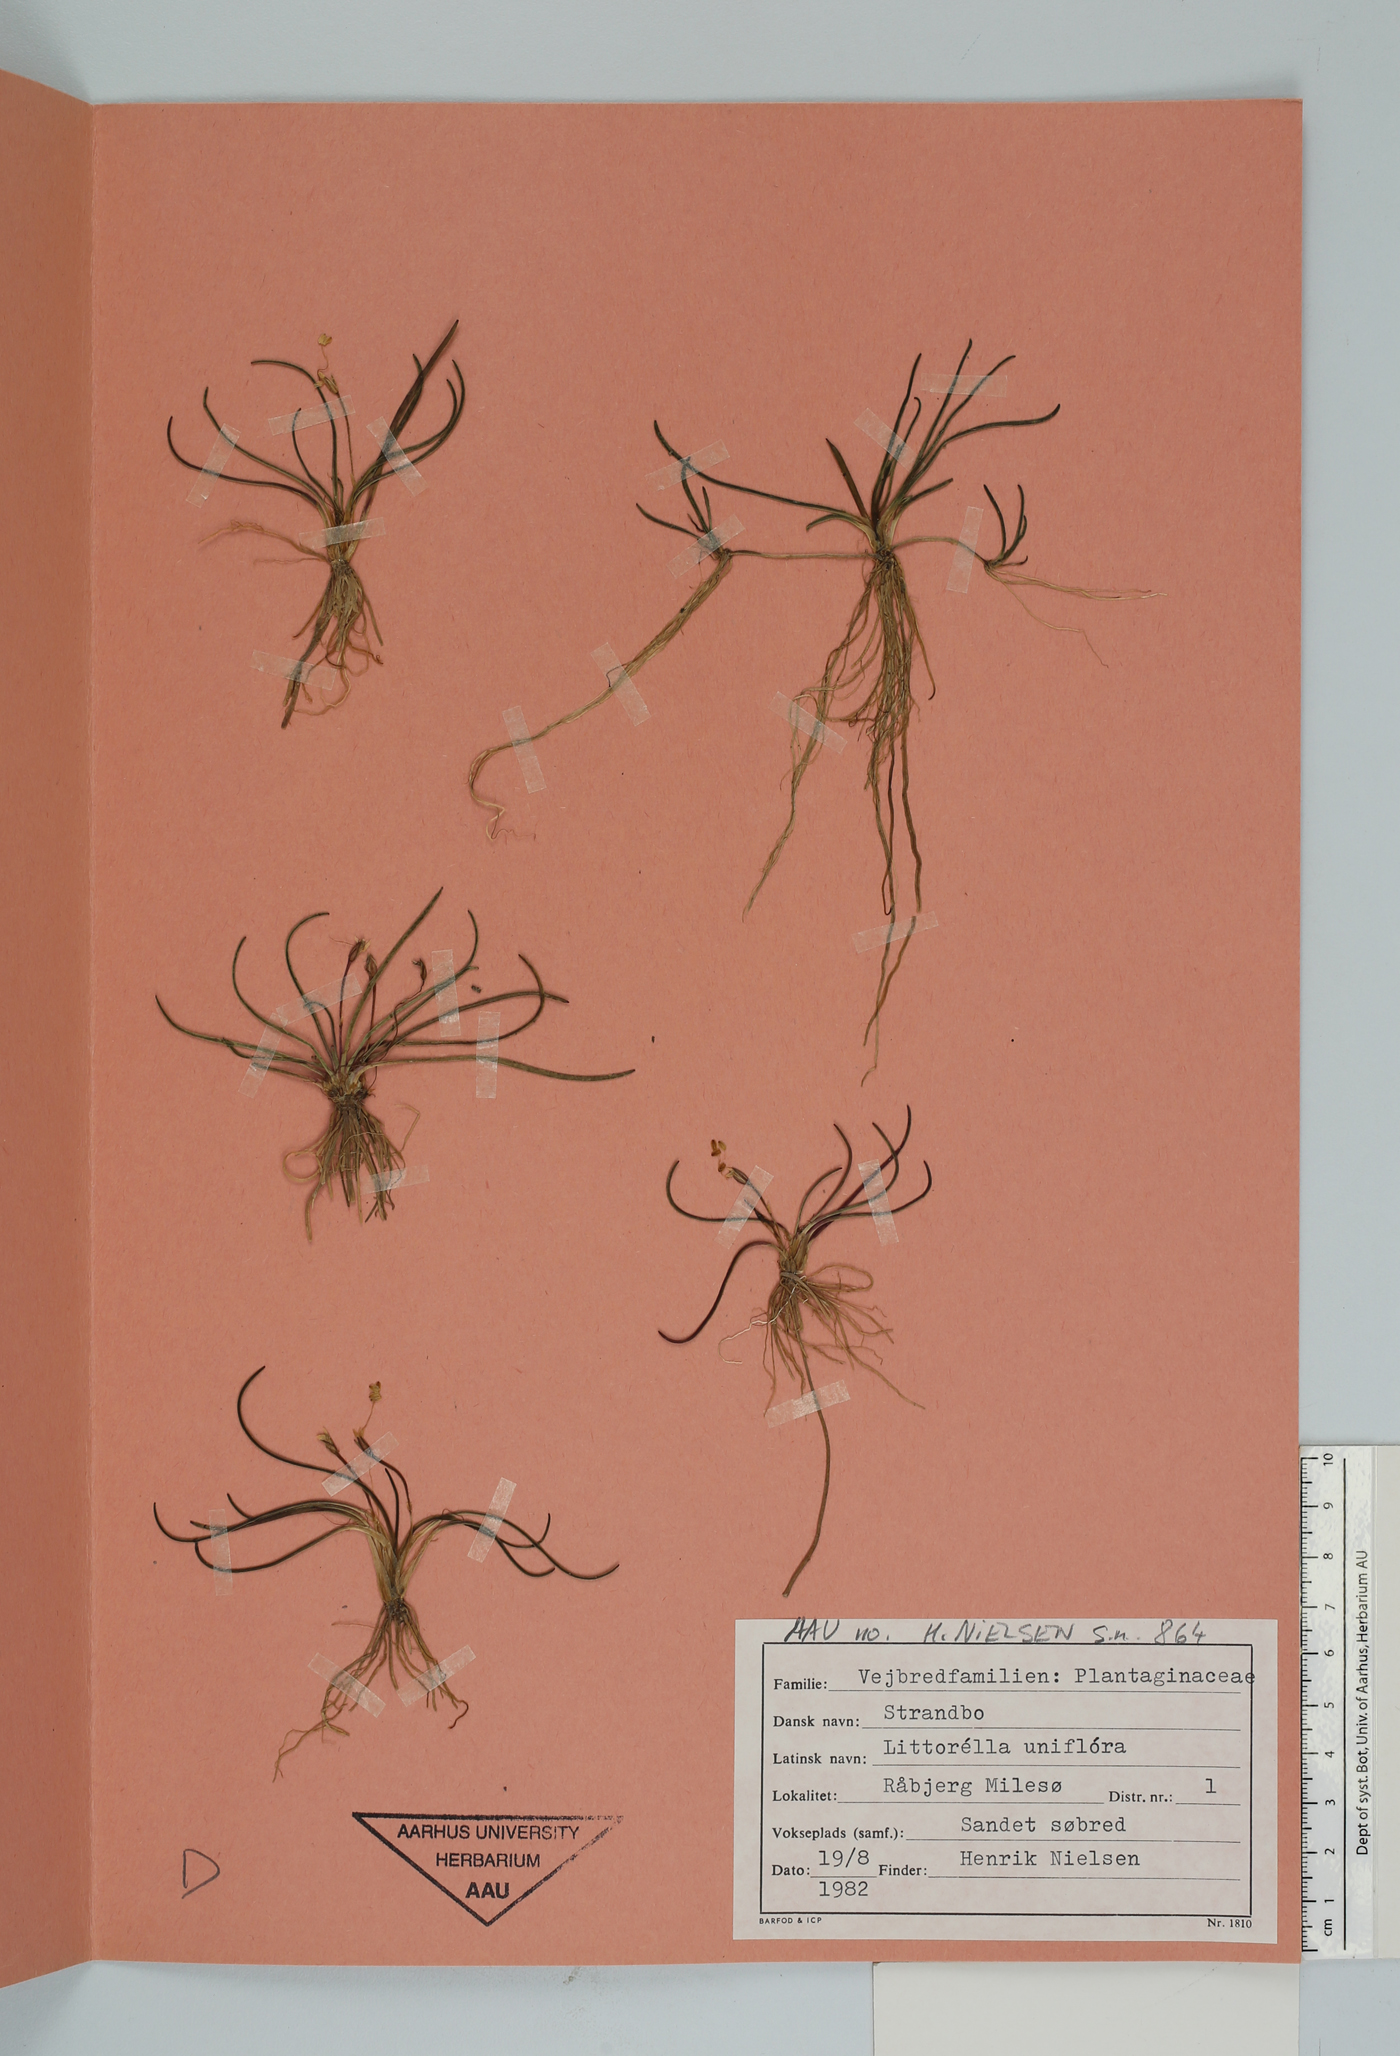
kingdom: Plantae
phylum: Tracheophyta
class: Magnoliopsida
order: Lamiales
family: Plantaginaceae
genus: Littorella
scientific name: Littorella uniflora
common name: Shoreweed
